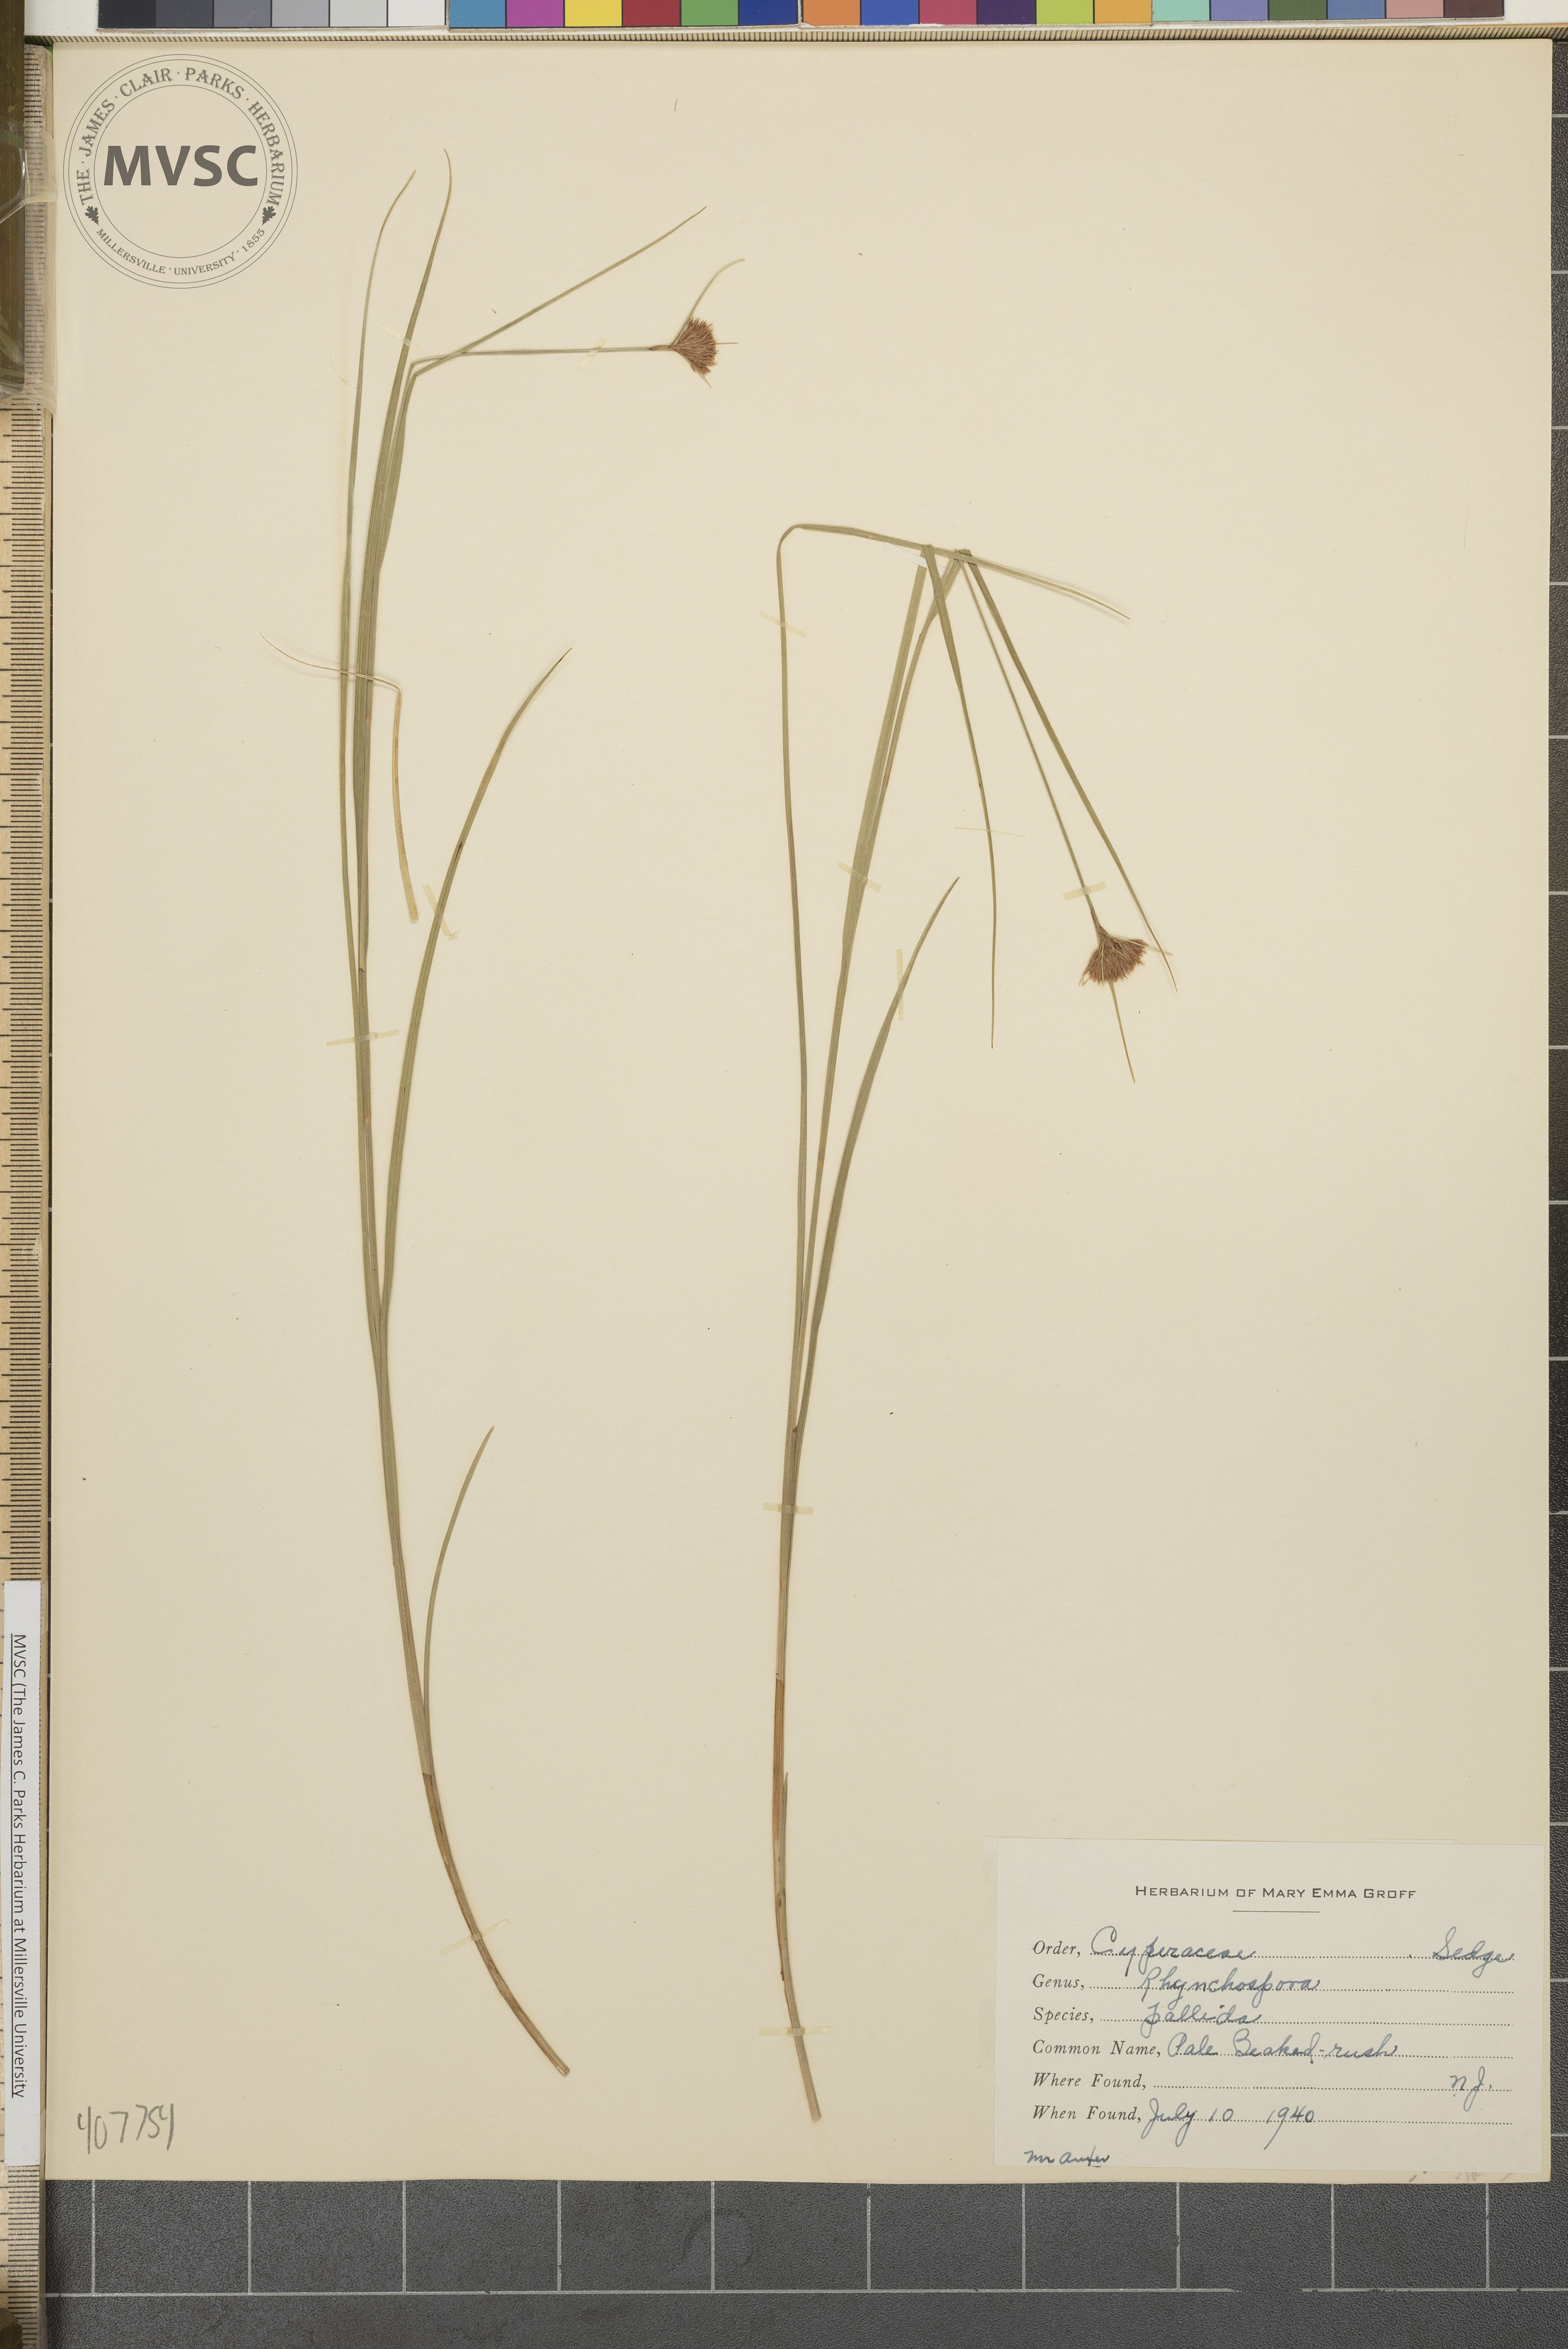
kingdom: Plantae
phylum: Tracheophyta
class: Liliopsida
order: Poales
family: Cyperaceae
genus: Rhynchospora
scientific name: Rhynchospora pallida
